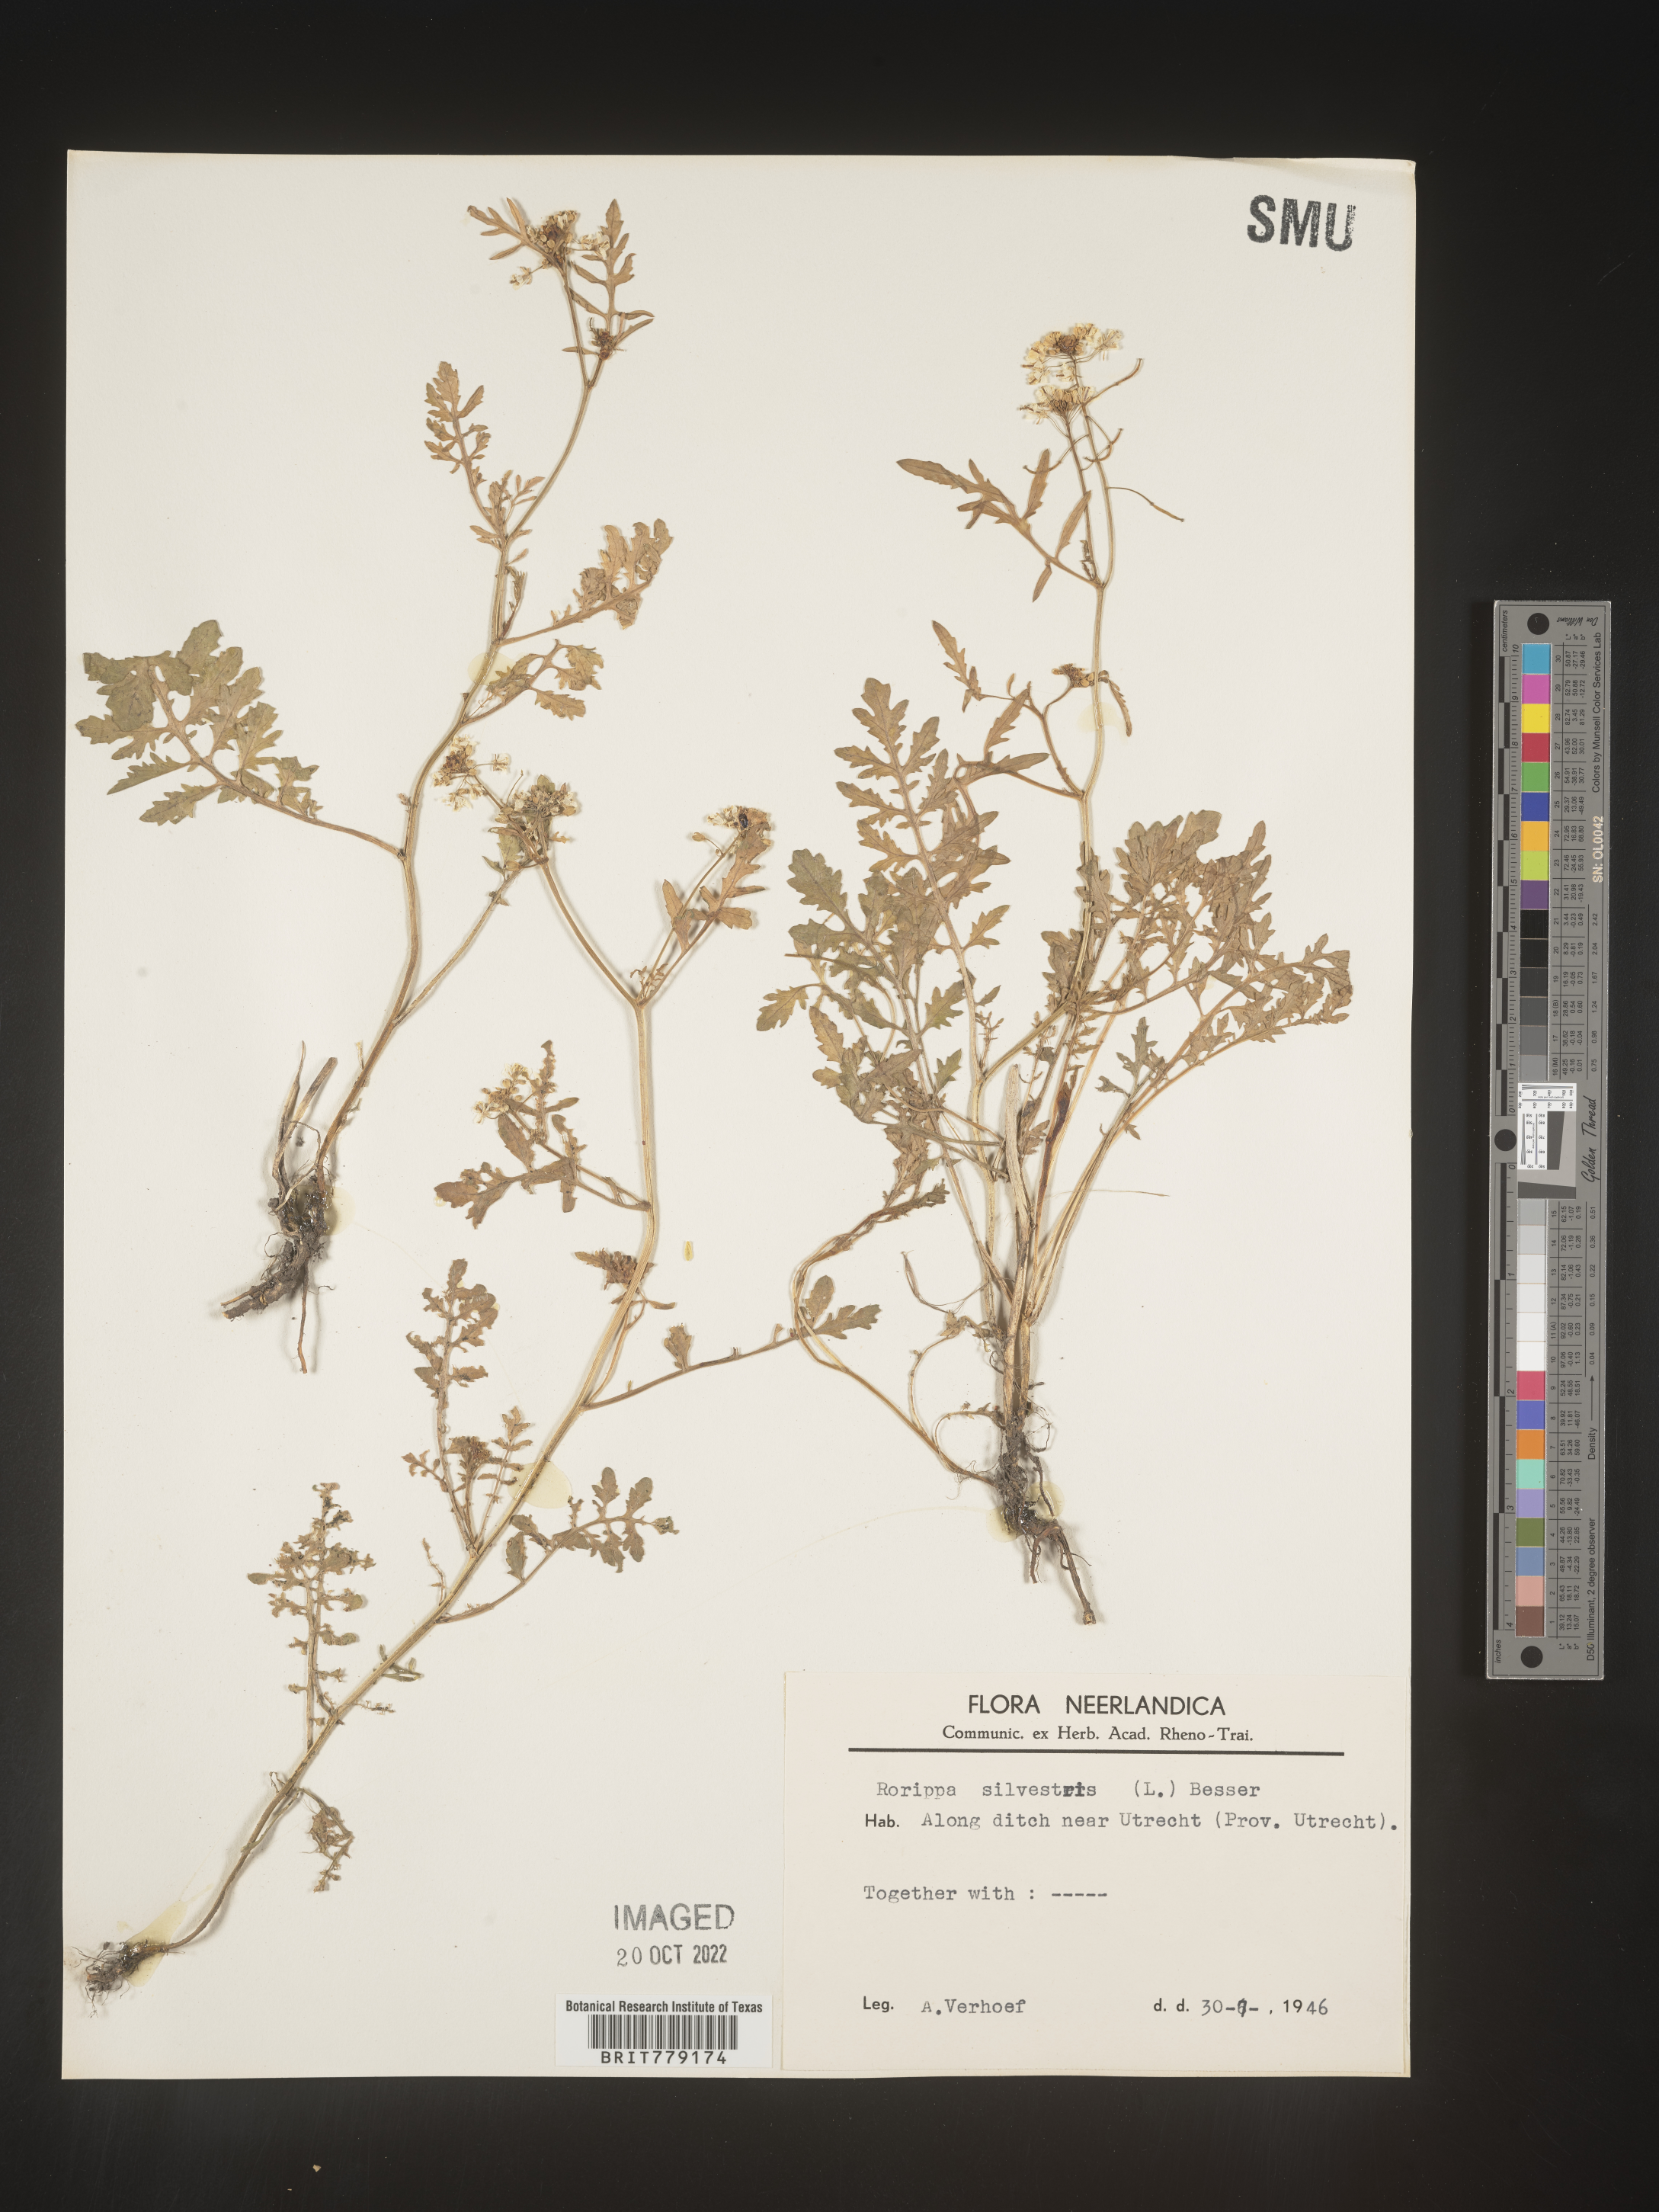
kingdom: Plantae
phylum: Tracheophyta
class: Magnoliopsida
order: Brassicales
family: Brassicaceae
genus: Rorippa
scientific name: Rorippa
